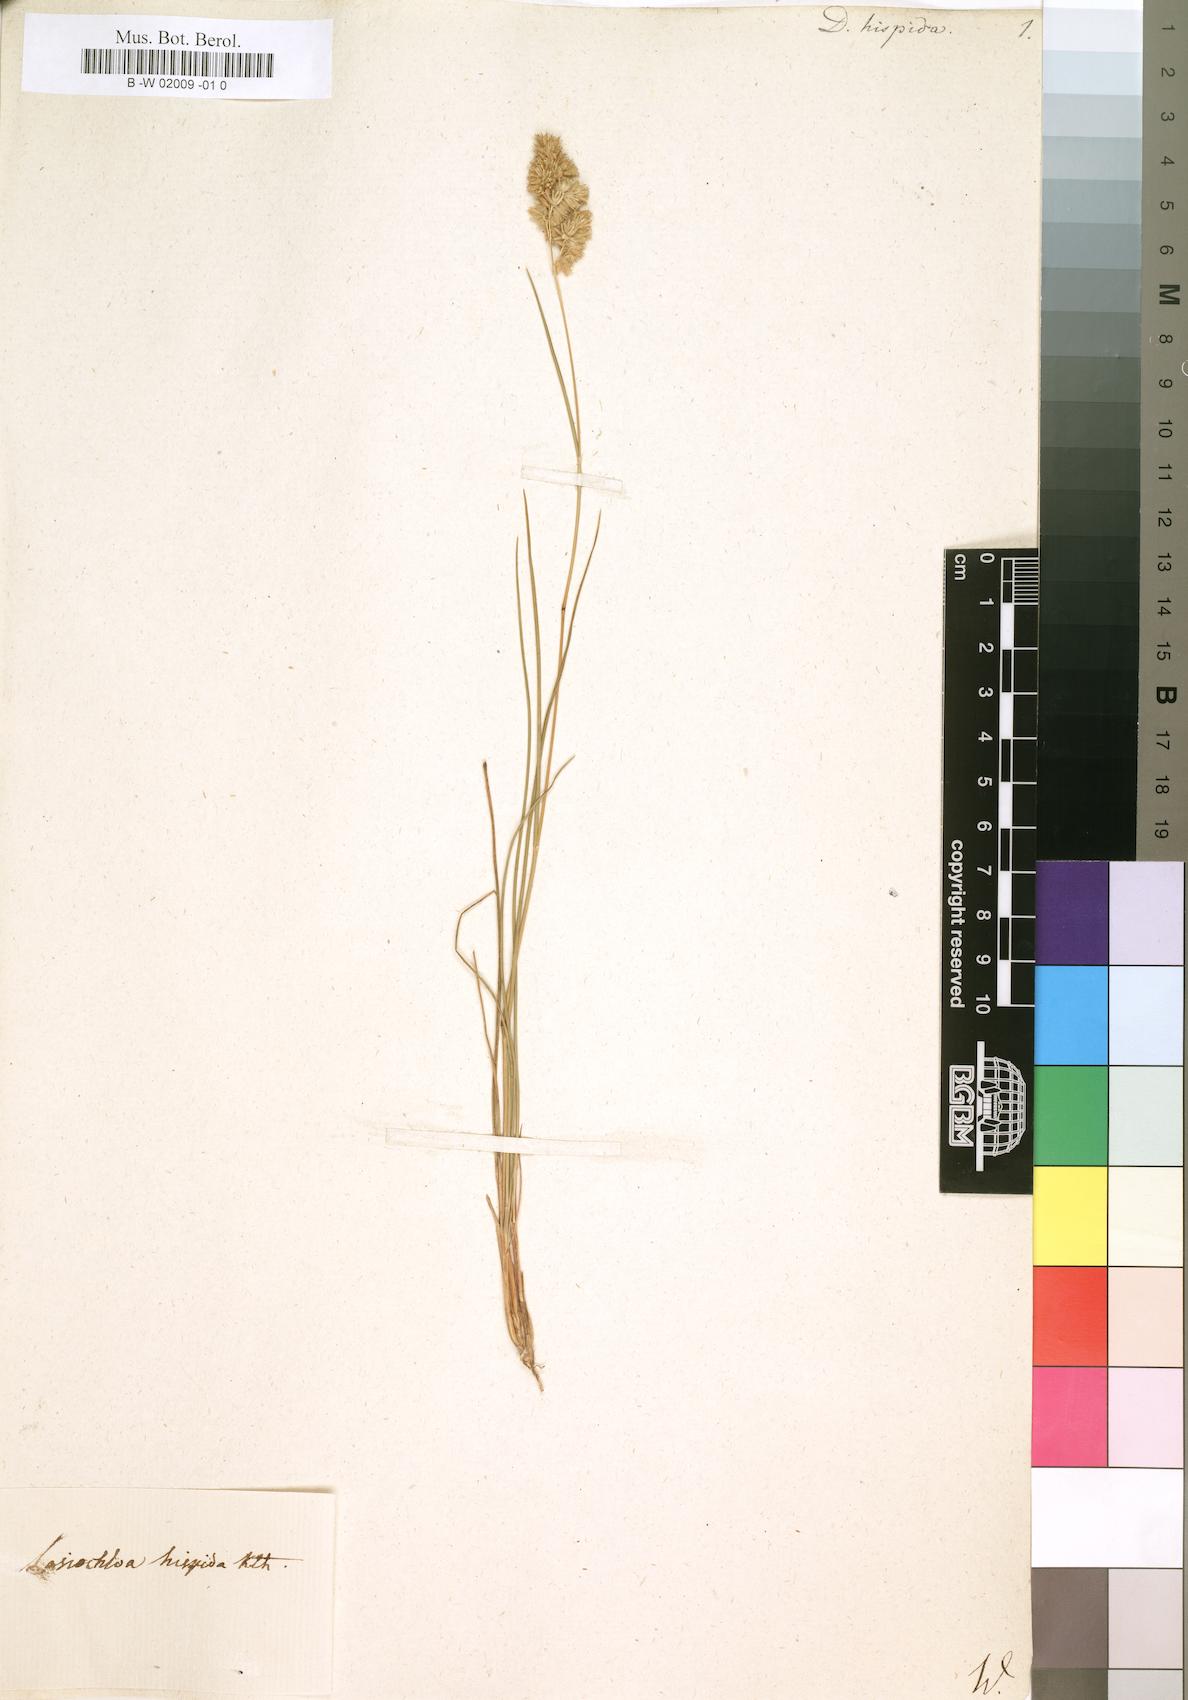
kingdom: Plantae
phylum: Tracheophyta
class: Liliopsida
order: Poales
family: Poaceae
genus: Tribolium
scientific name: Tribolium hispidum
